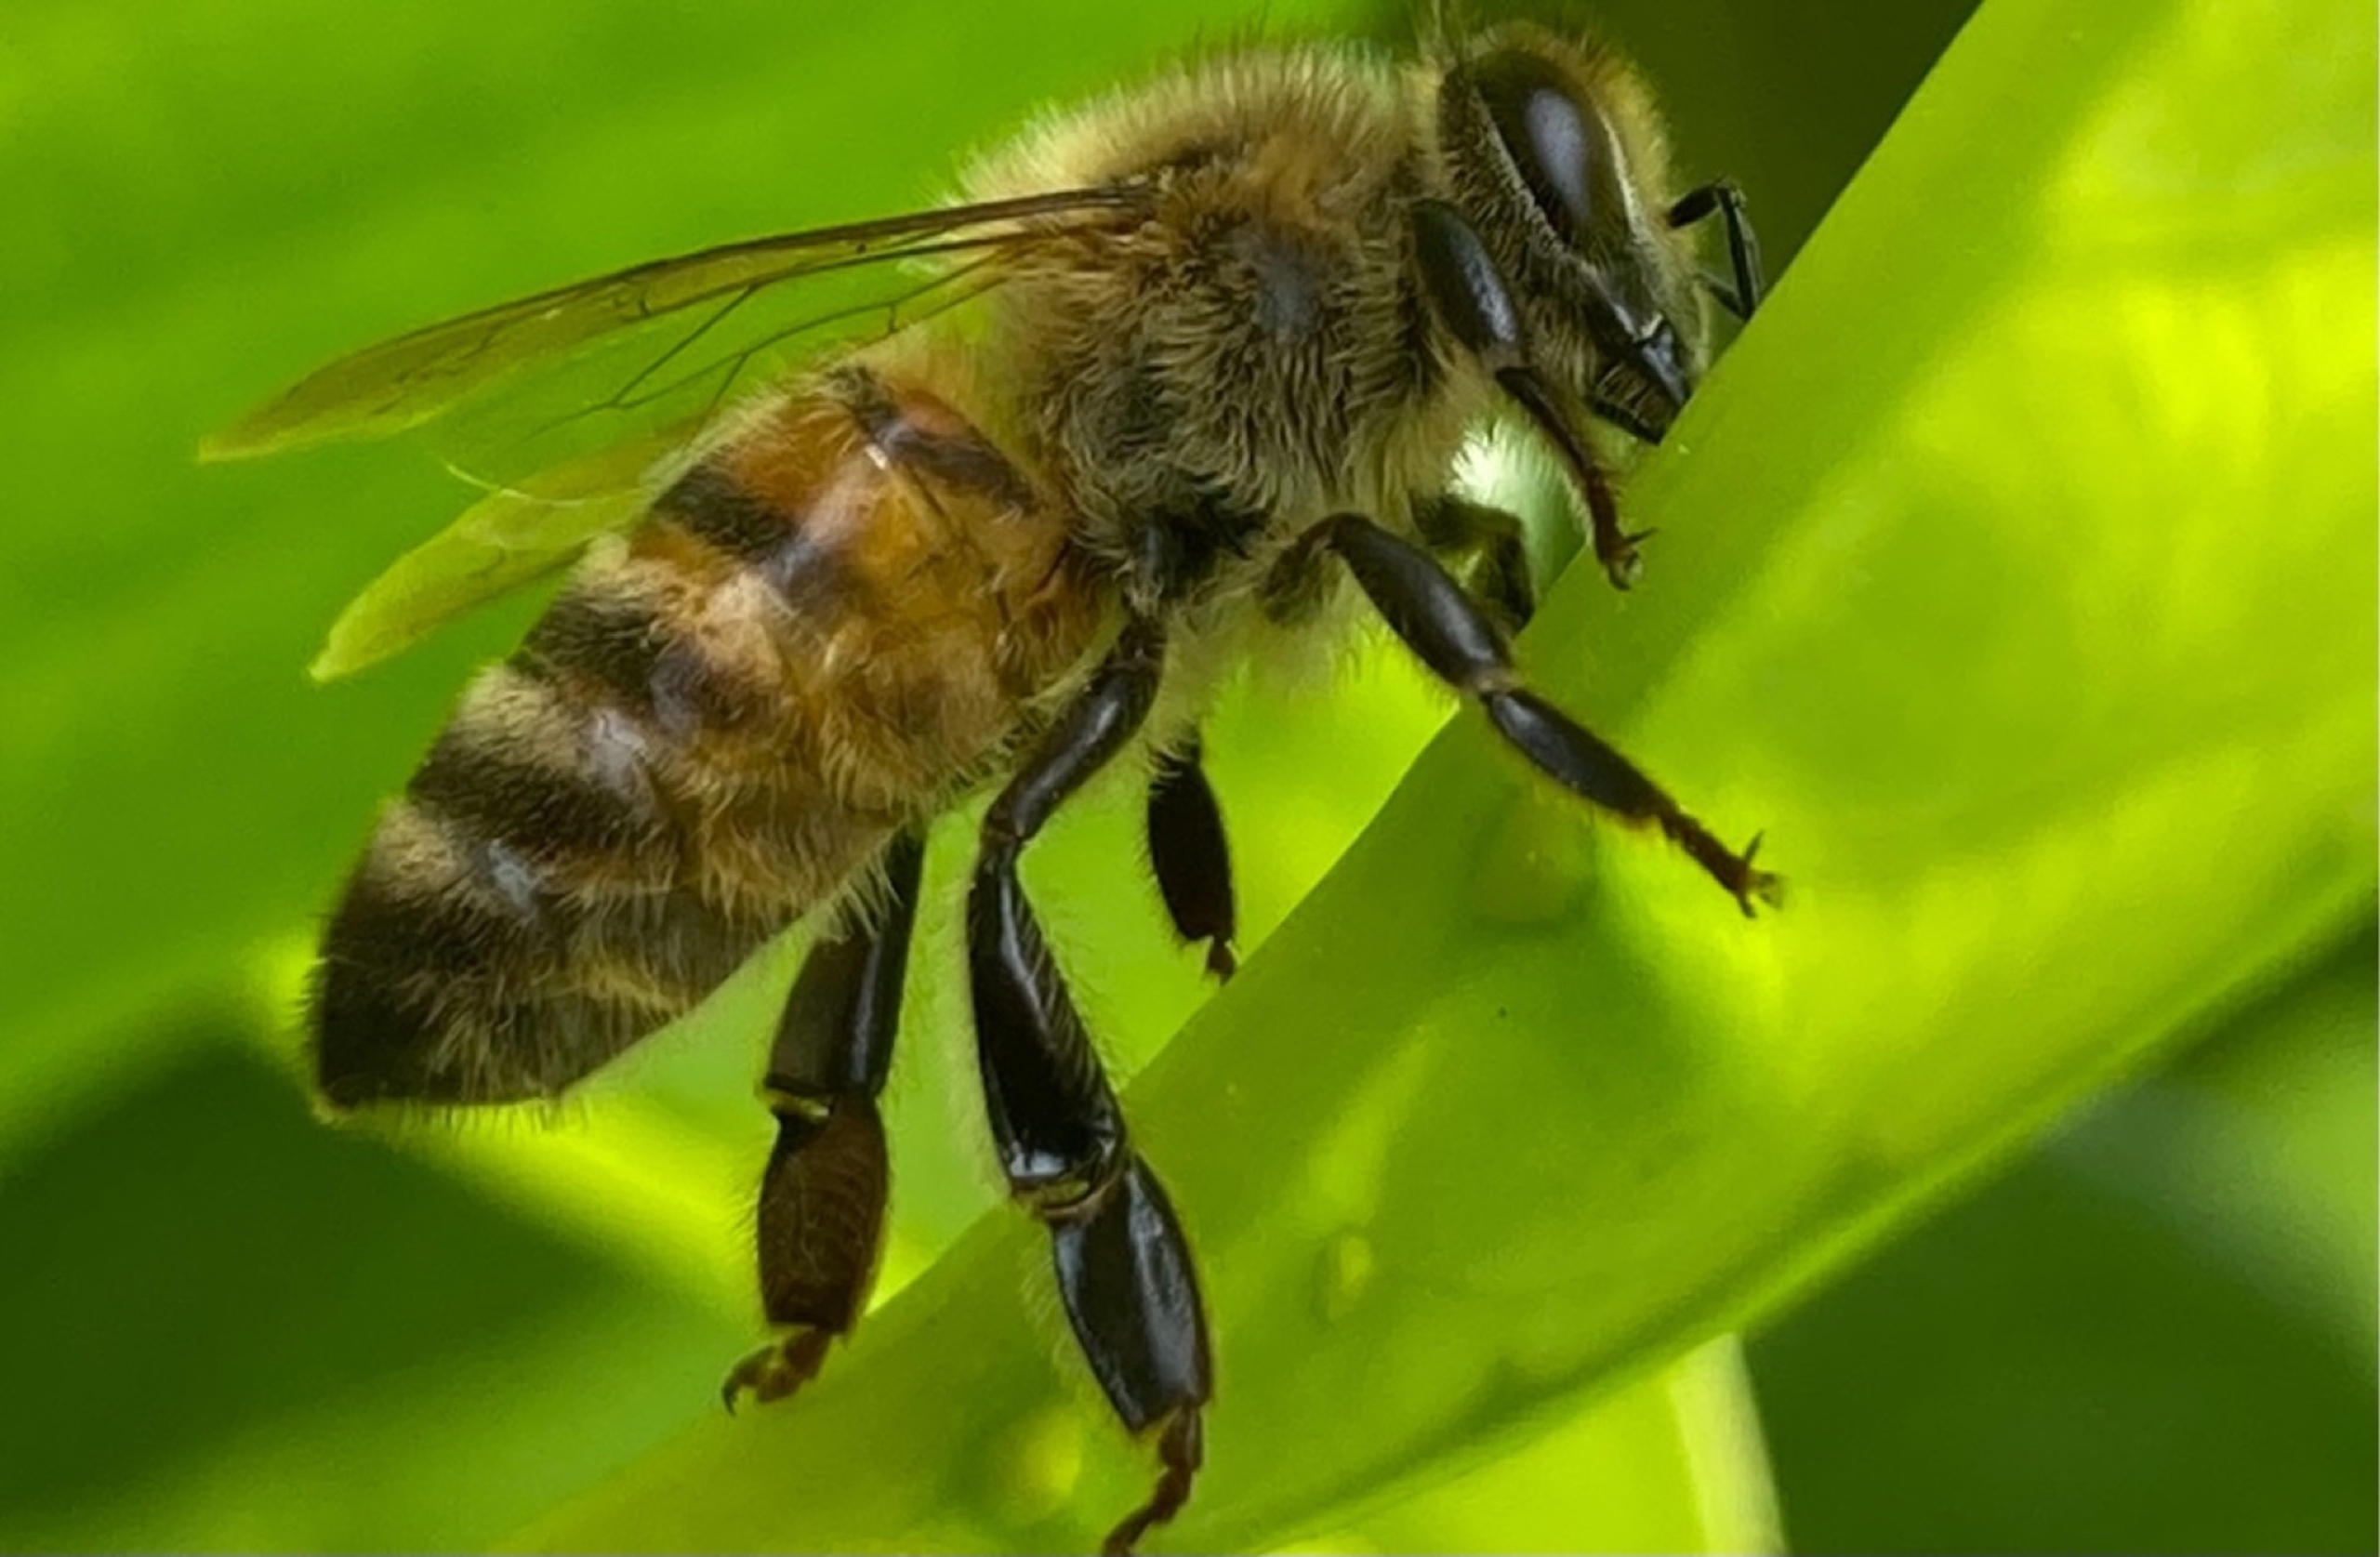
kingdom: Animalia
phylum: Arthropoda
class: Insecta
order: Hymenoptera
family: Apidae
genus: Apis
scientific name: Apis mellifera
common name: Honningbi
